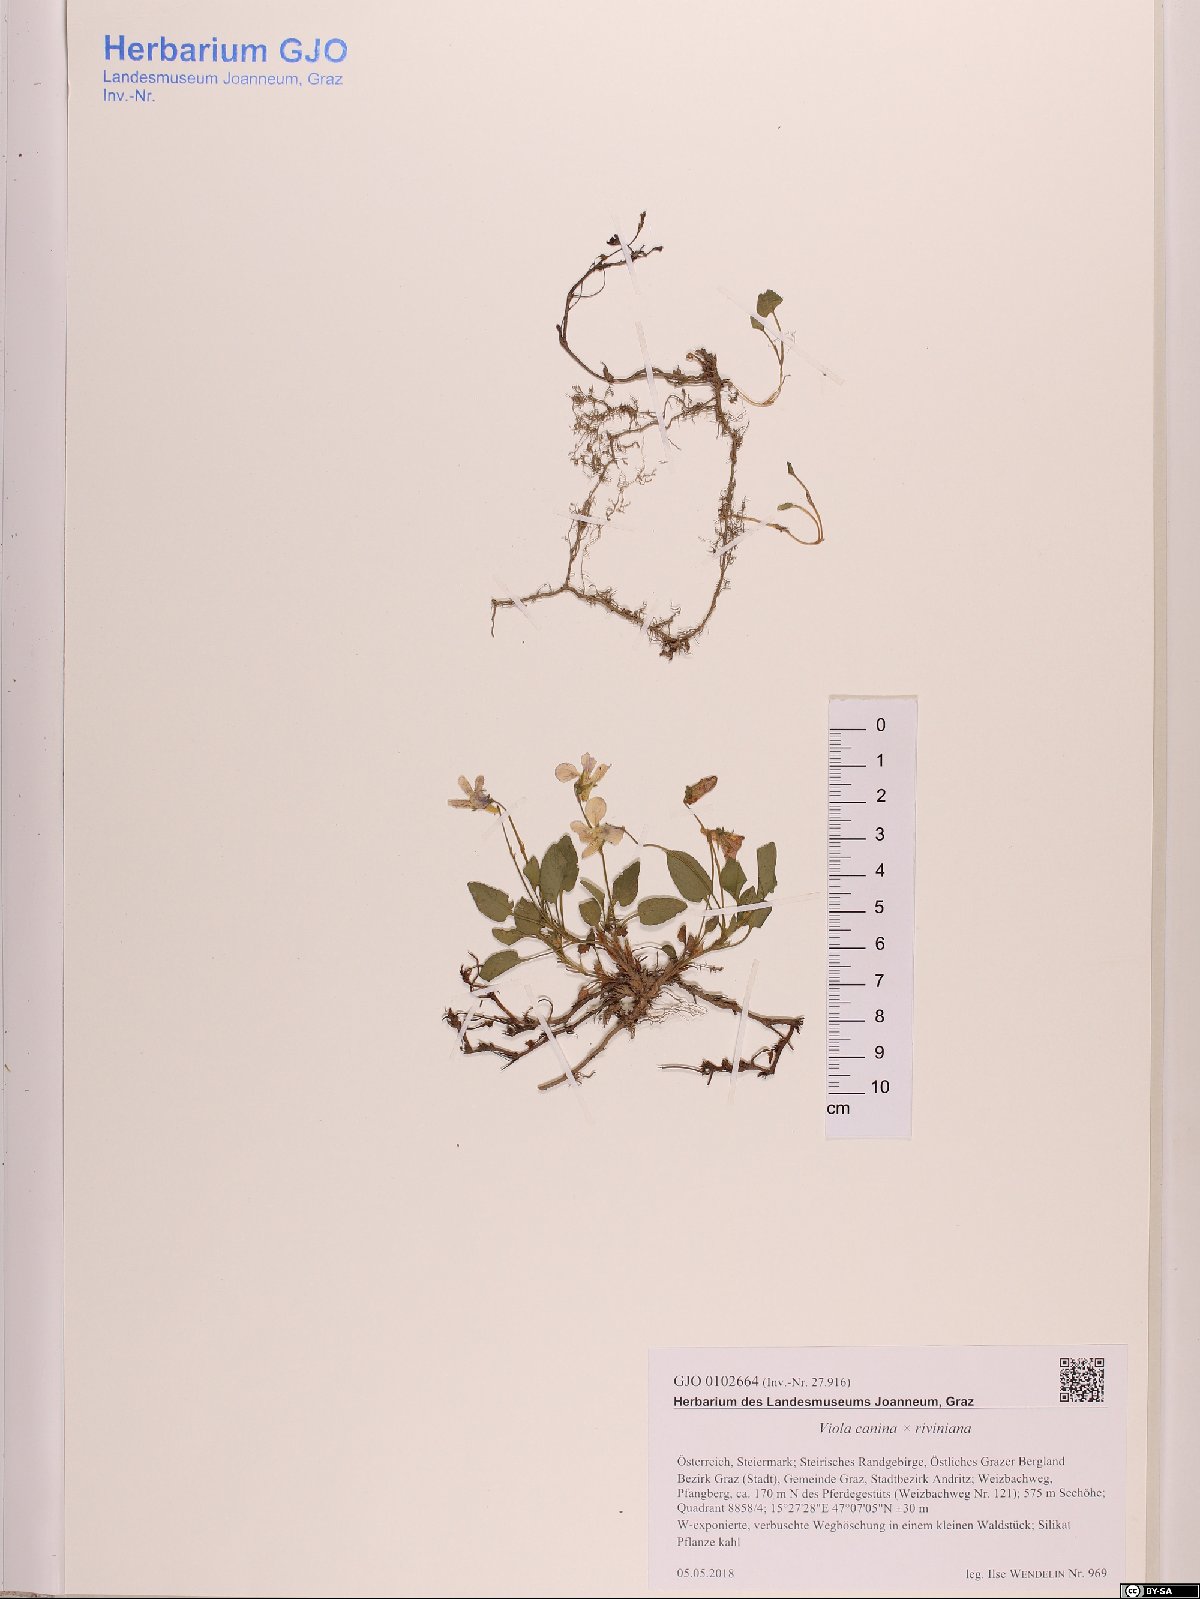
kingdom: Plantae
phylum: Tracheophyta
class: Magnoliopsida
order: Malpighiales
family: Violaceae
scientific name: Violaceae
